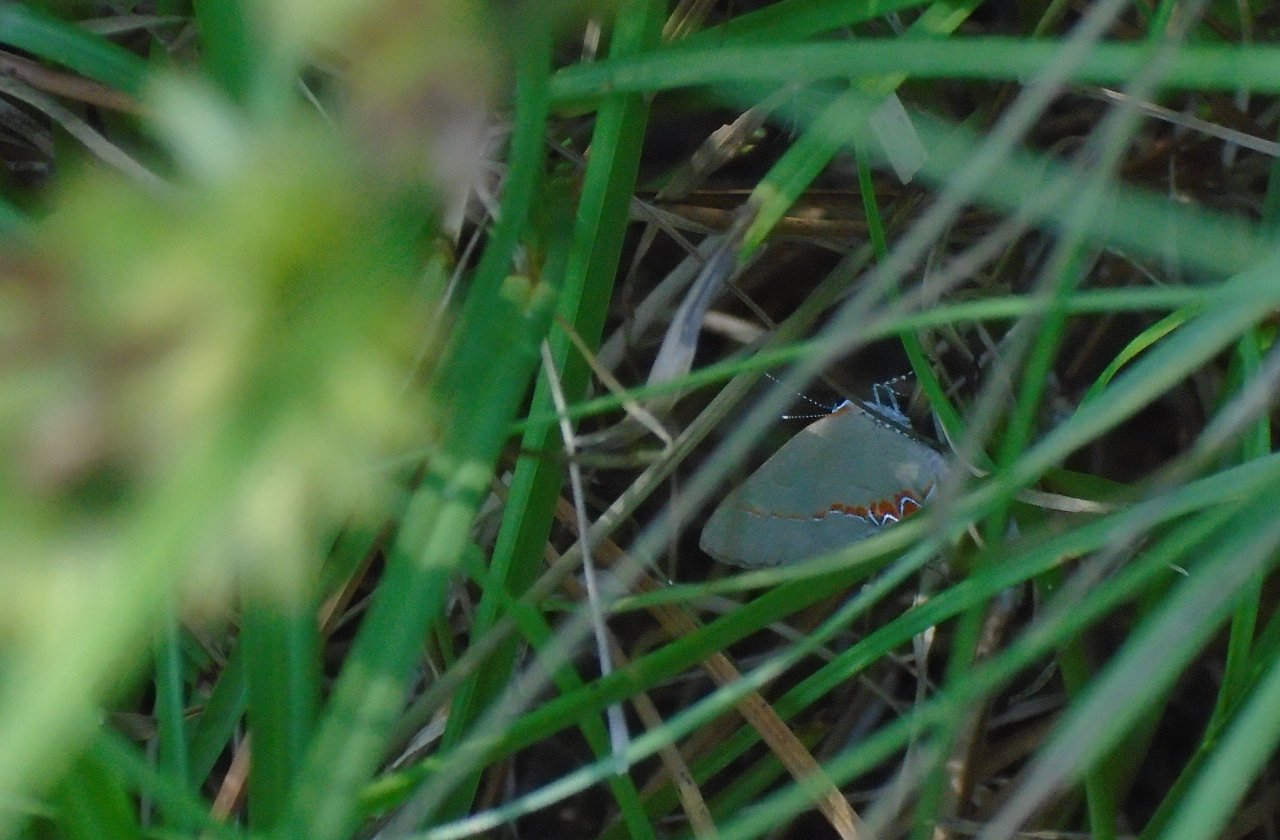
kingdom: Animalia
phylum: Arthropoda
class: Insecta
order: Lepidoptera
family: Lycaenidae
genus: Calycopis
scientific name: Calycopis cecrops
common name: Red-banded Hairstreak
